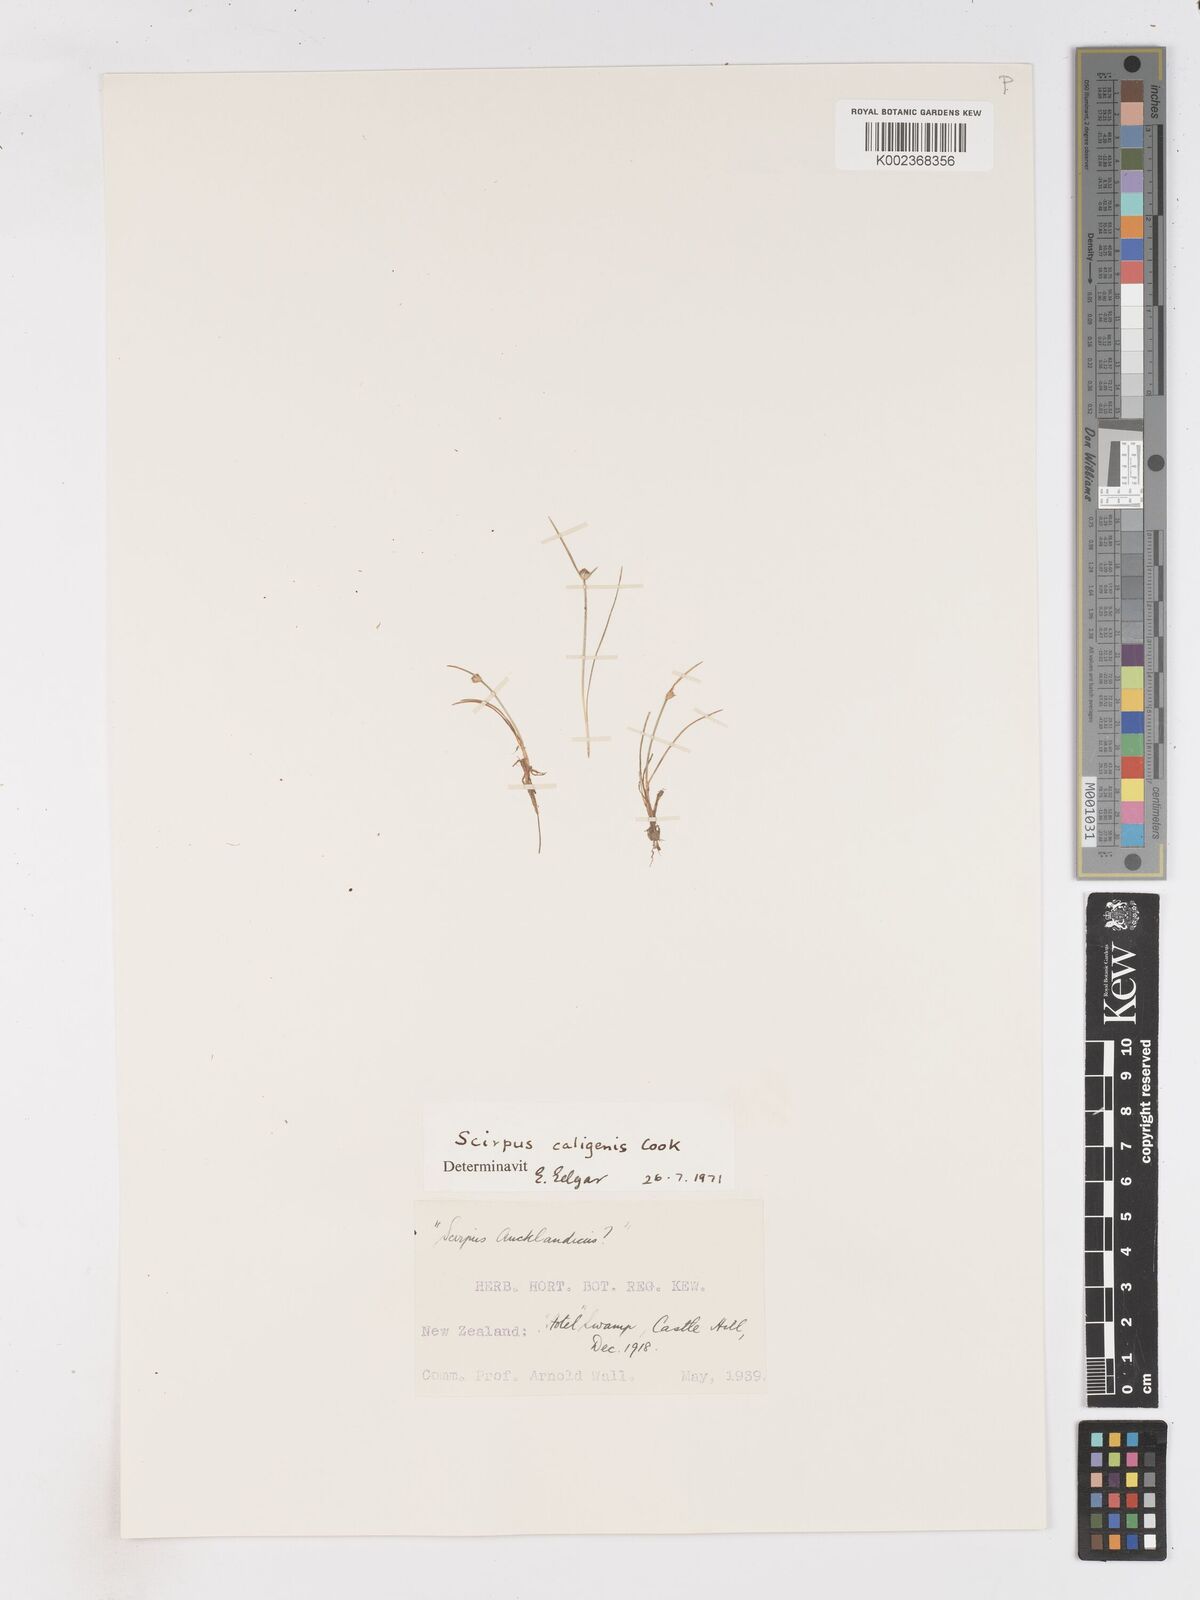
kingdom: Plantae
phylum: Tracheophyta
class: Liliopsida
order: Poales
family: Cyperaceae
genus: Isolepis
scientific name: Isolepis caligenis
